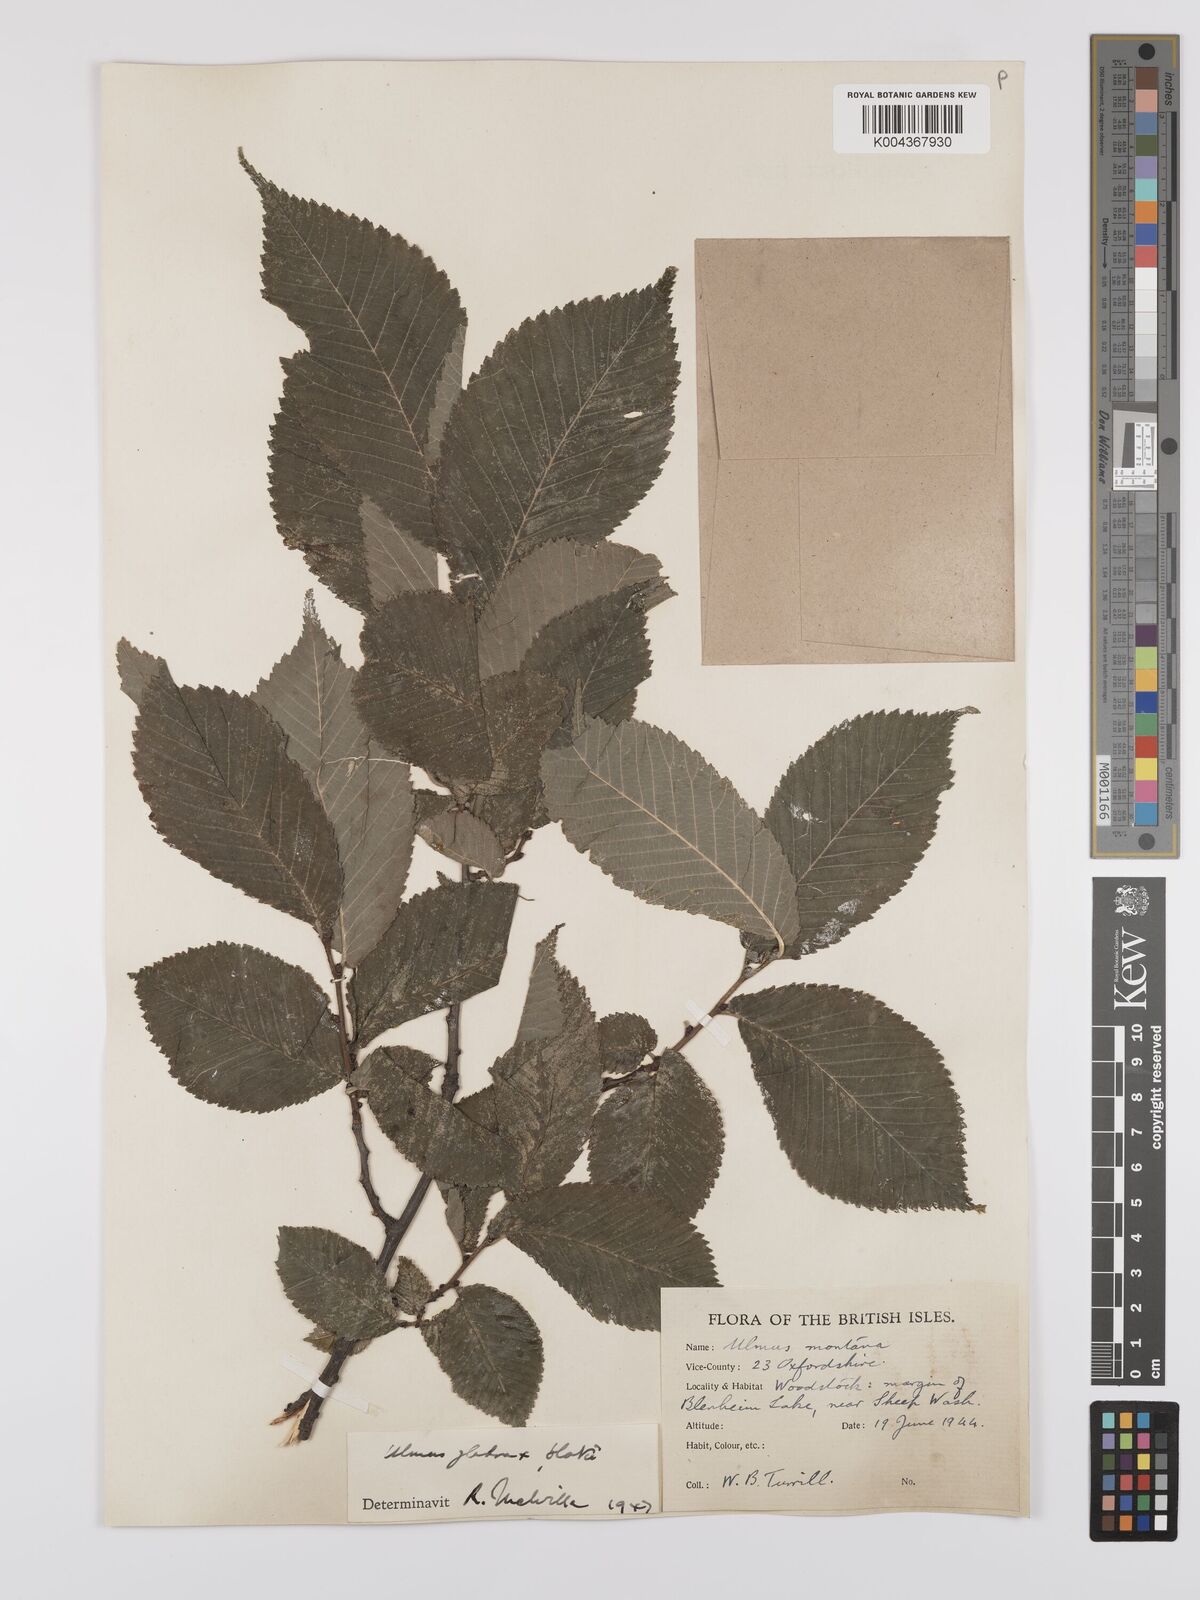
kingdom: Plantae
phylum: Tracheophyta
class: Magnoliopsida
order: Rosales
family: Ulmaceae
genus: Ulmus
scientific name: Ulmus
